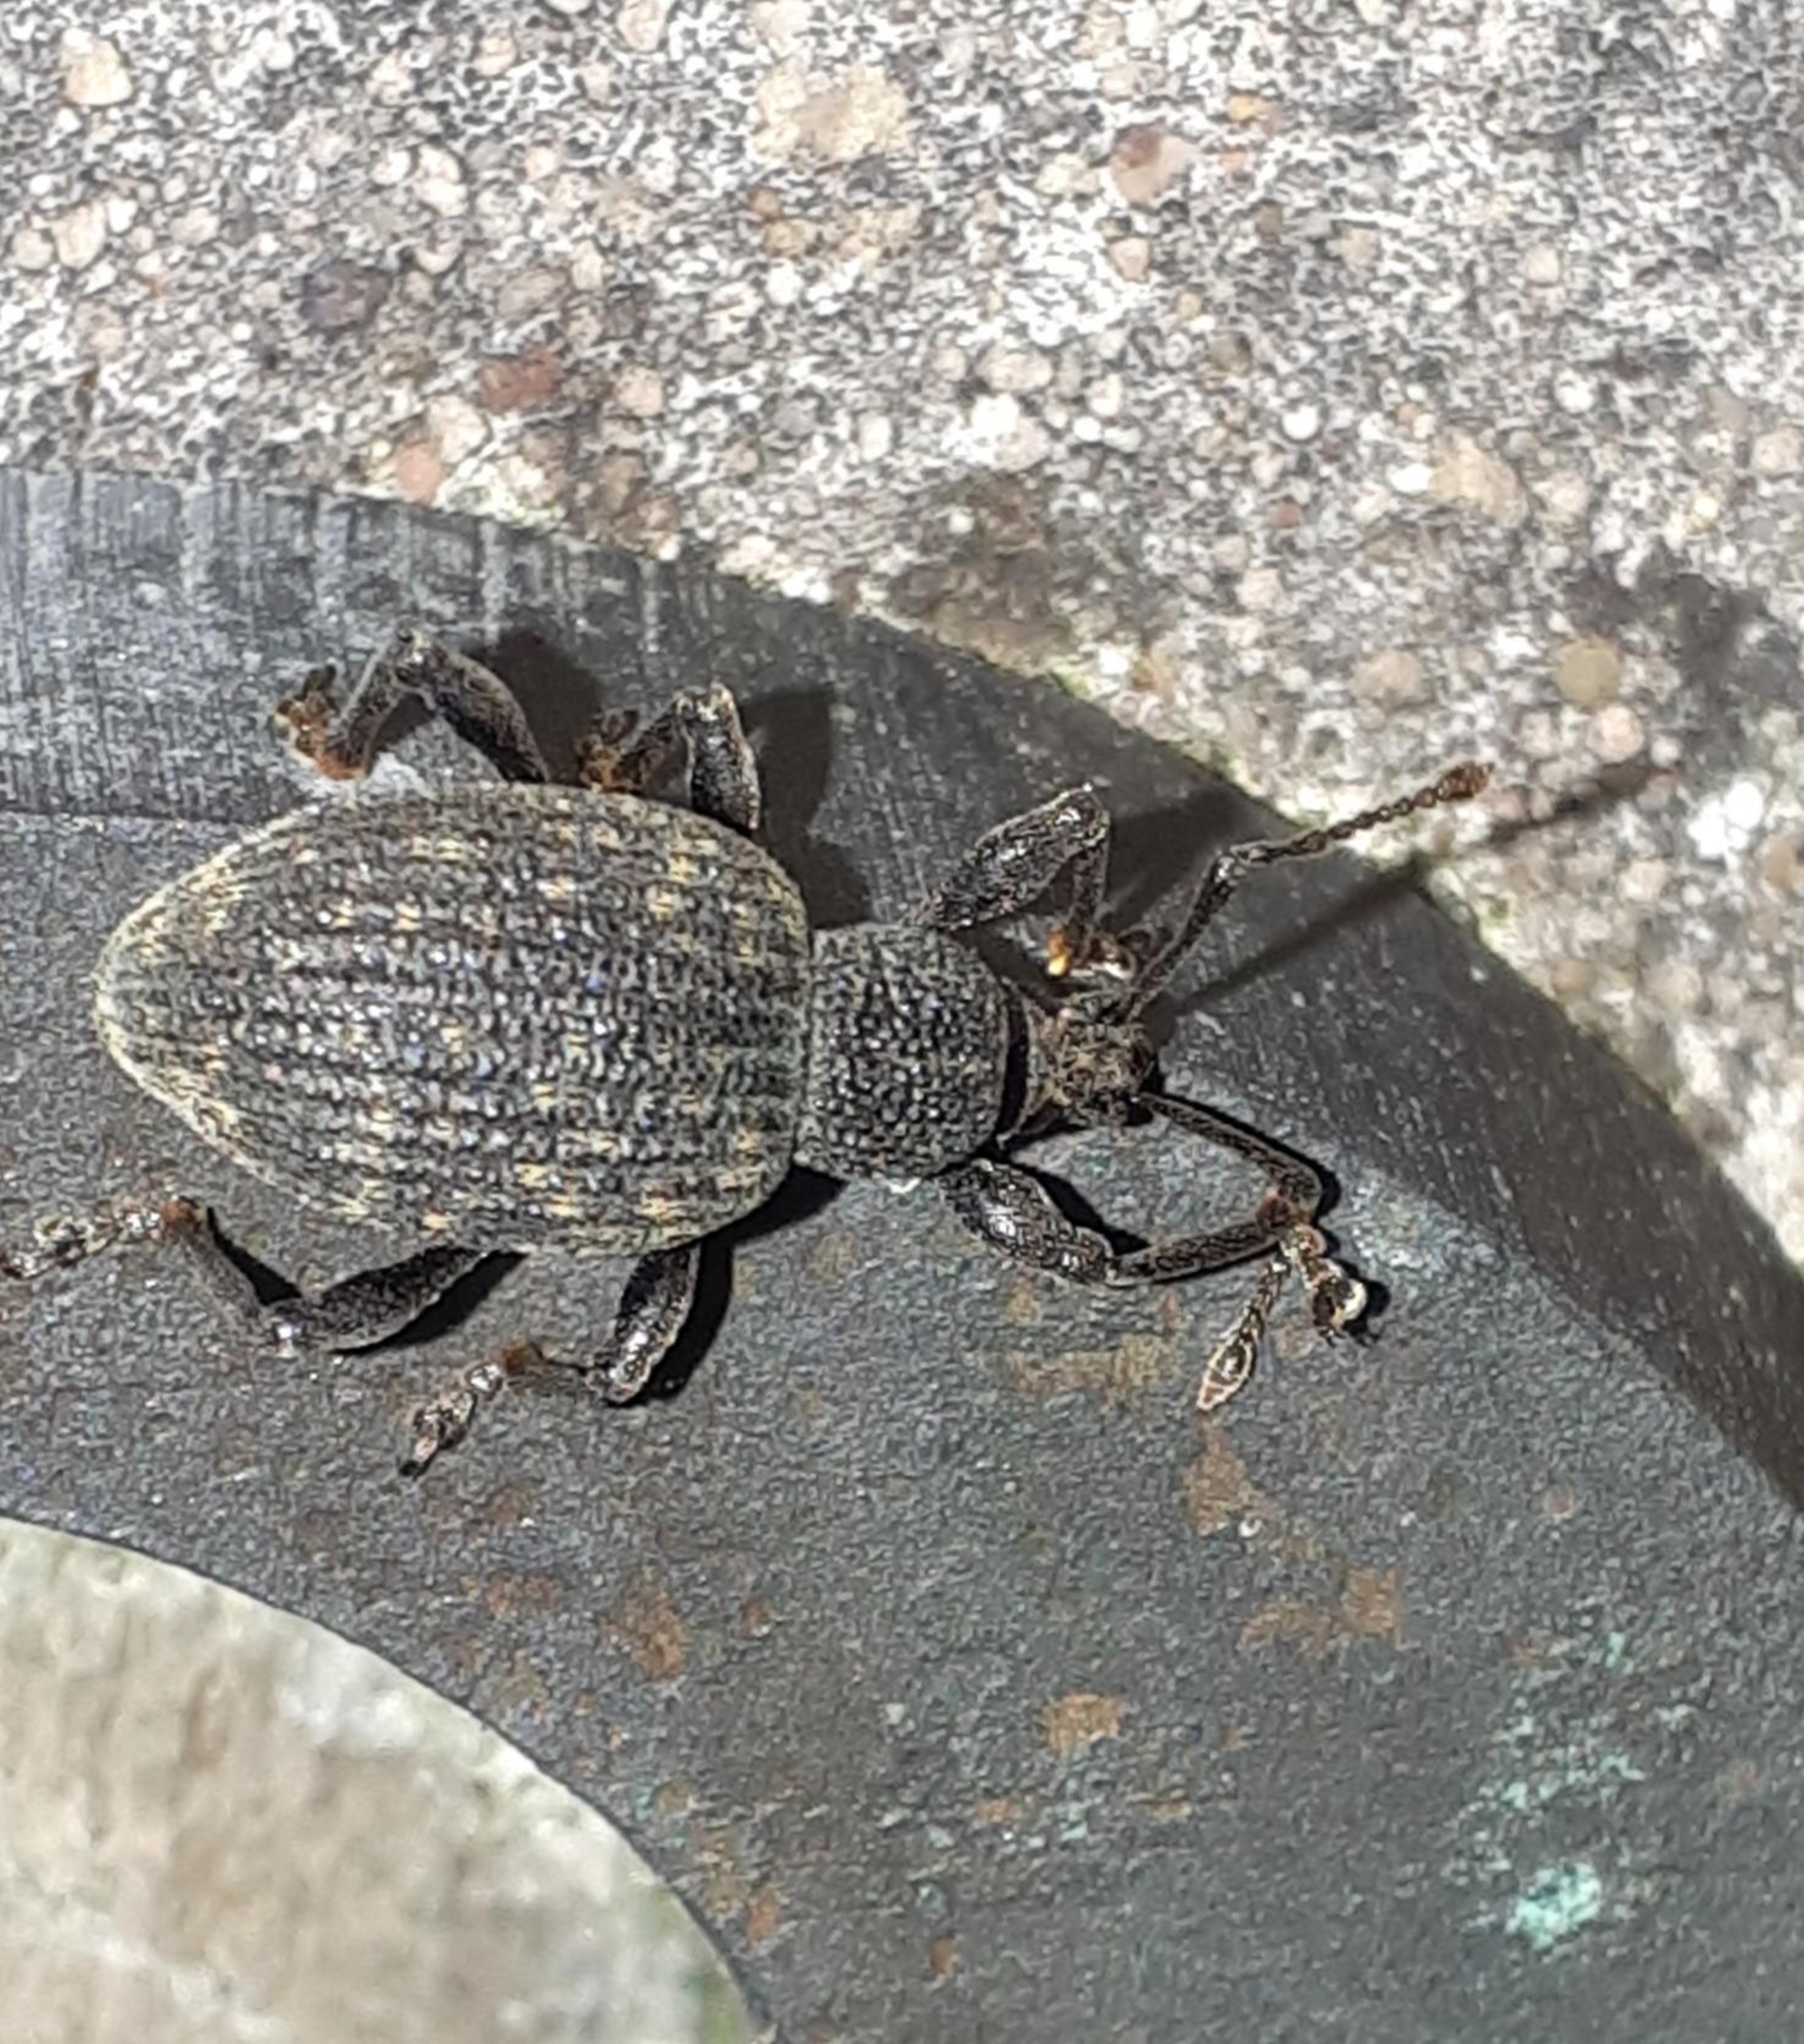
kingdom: Animalia
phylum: Arthropoda
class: Insecta
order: Coleoptera
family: Curculionidae
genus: Otiorhynchus
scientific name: Otiorhynchus sulcatus
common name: Væksthussnudebille
